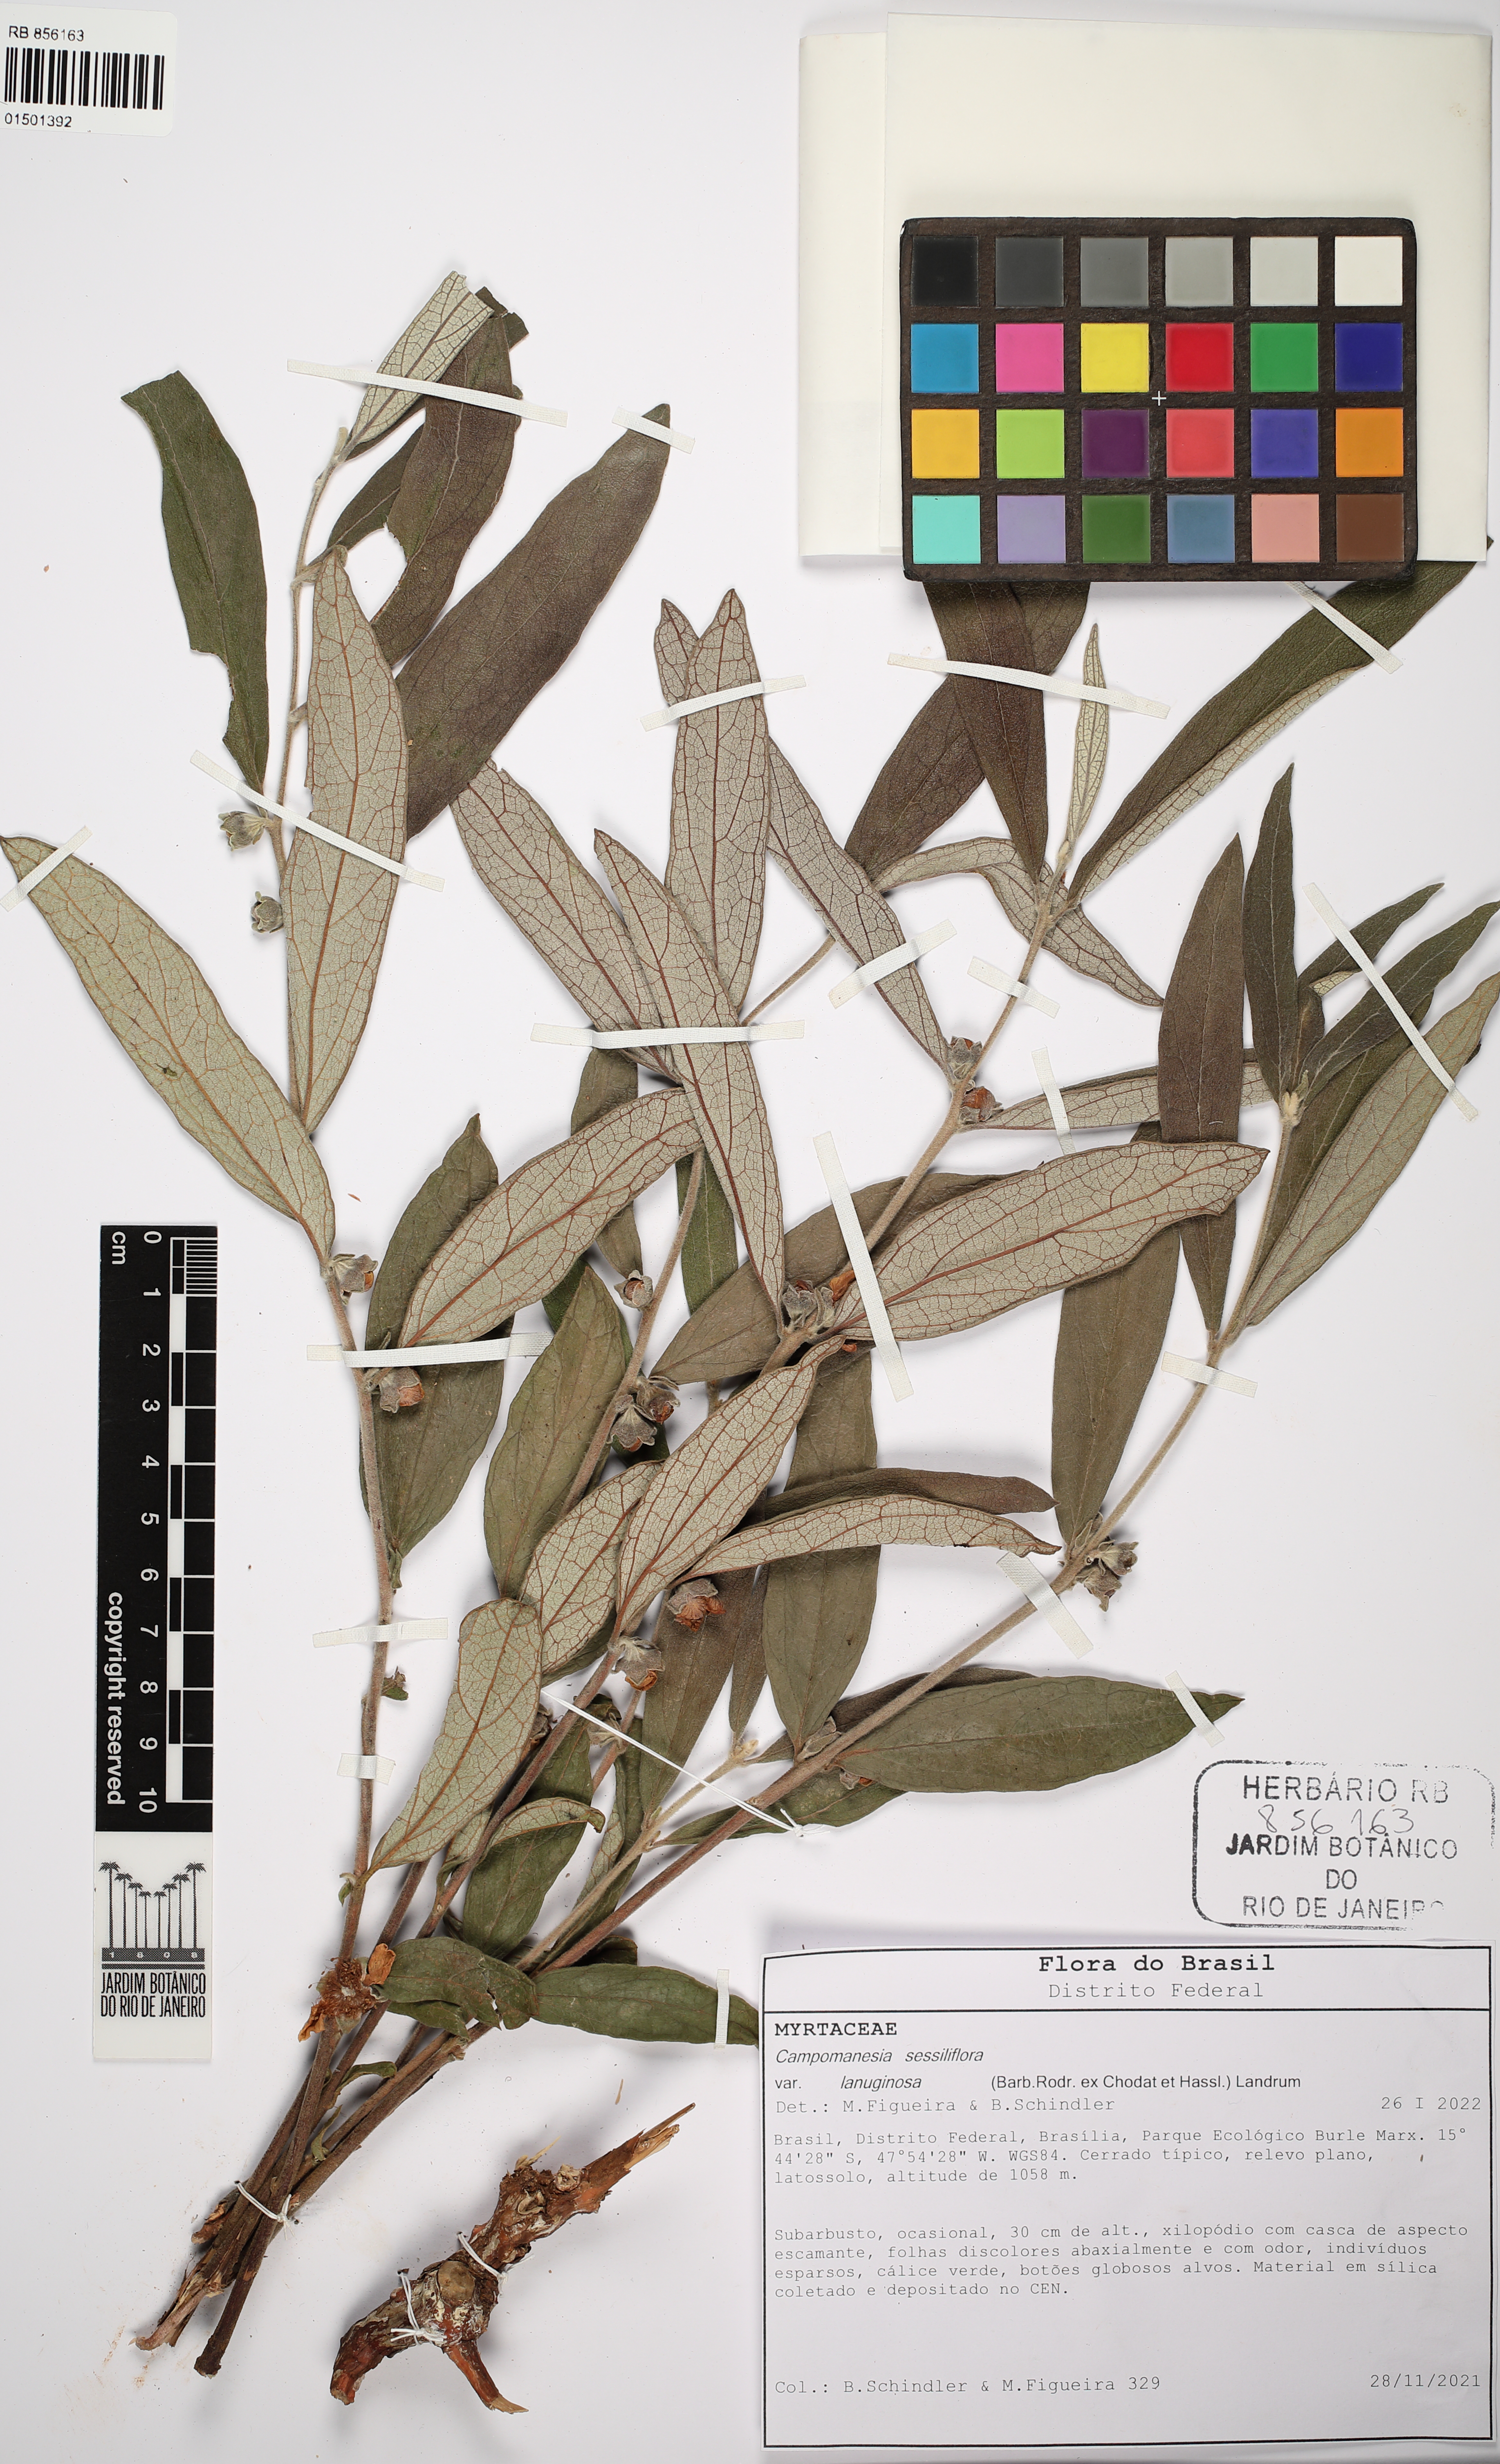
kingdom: Plantae
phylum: Tracheophyta
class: Magnoliopsida
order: Myrtales
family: Myrtaceae
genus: Campomanesia
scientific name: Campomanesia sessiliflora
